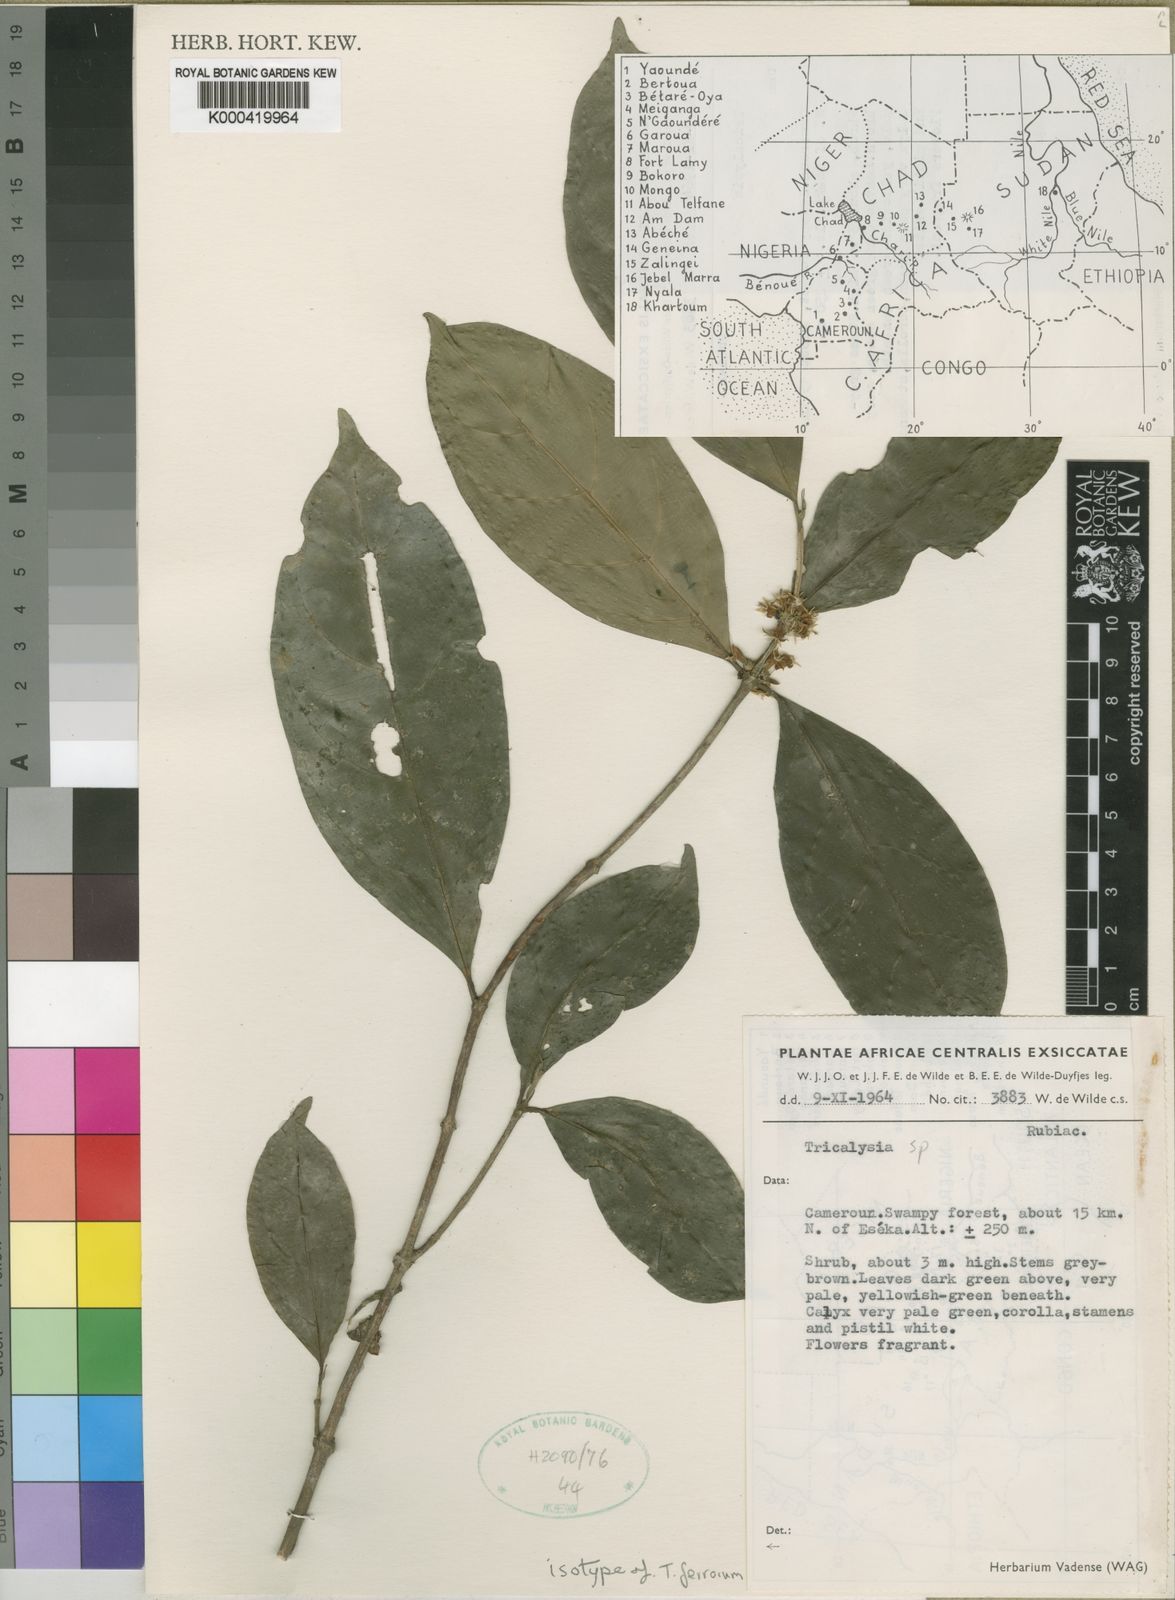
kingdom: Plantae
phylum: Tracheophyta
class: Magnoliopsida
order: Gentianales
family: Rubiaceae
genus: Tricalysia
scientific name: Tricalysia ferorum
